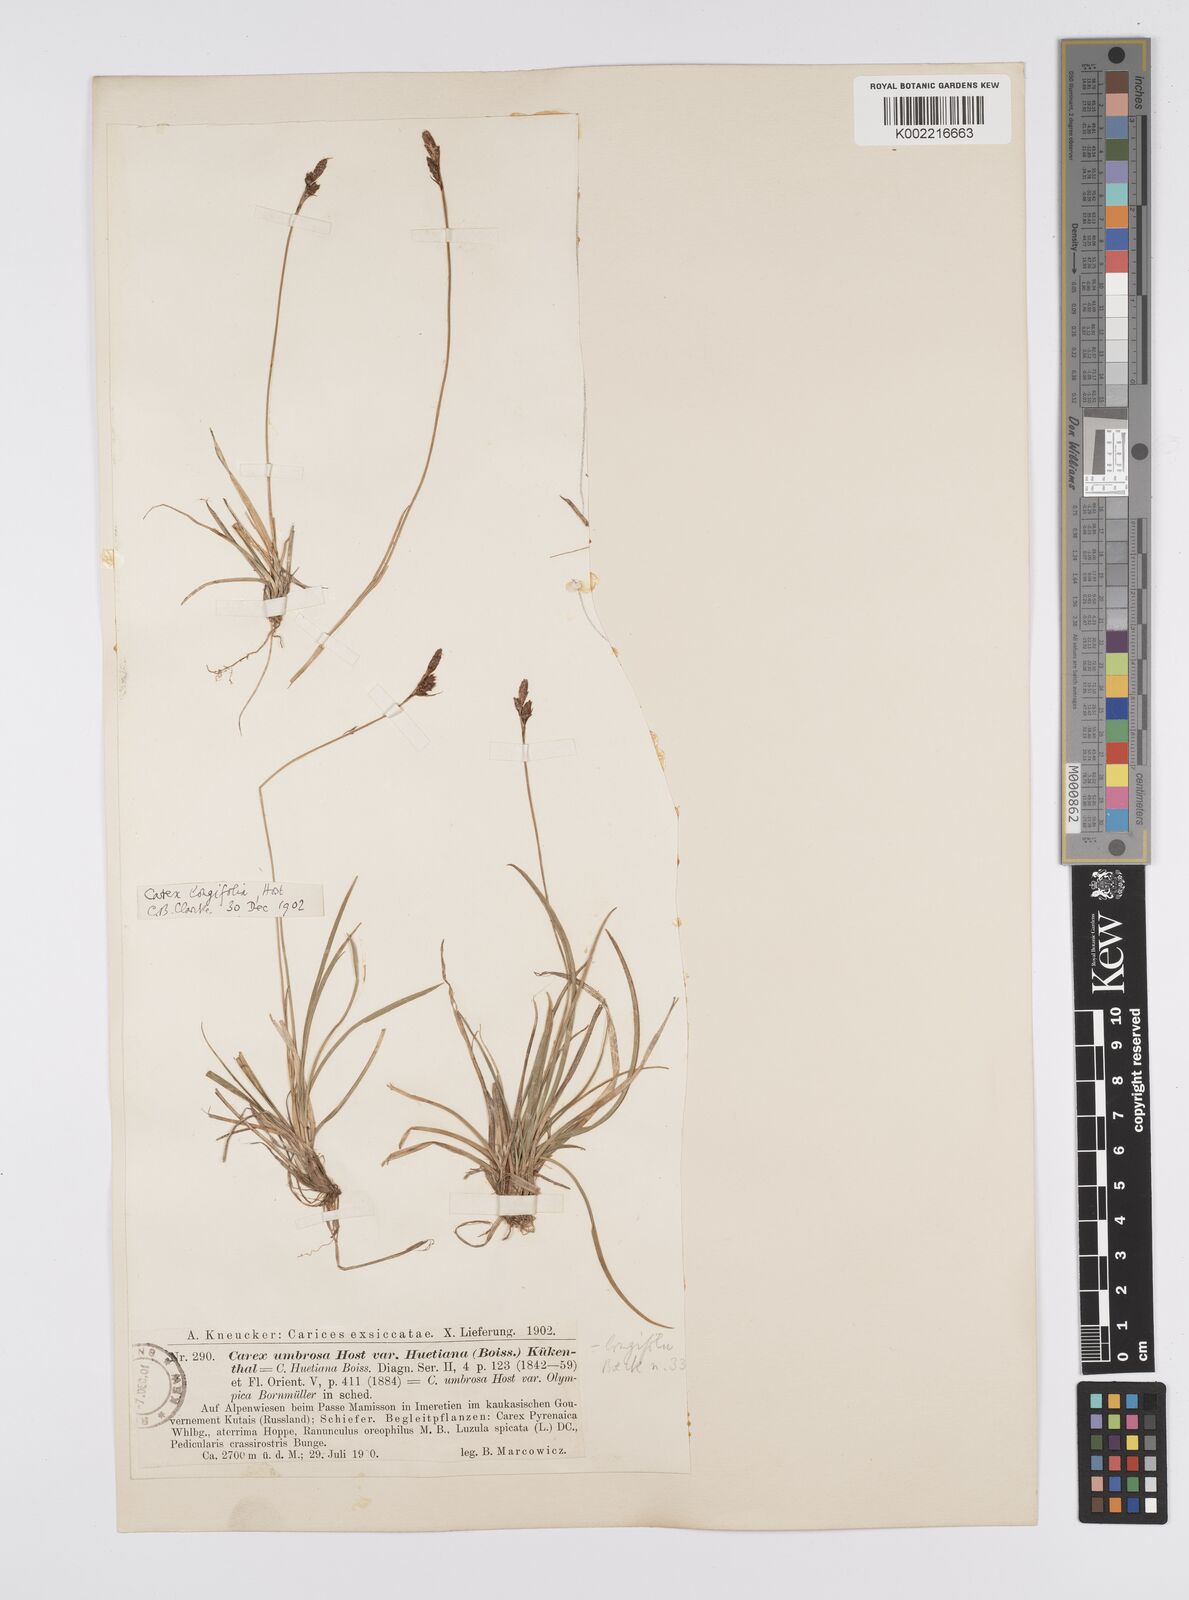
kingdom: Plantae
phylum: Tracheophyta
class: Liliopsida
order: Poales
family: Cyperaceae
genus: Carex
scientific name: Carex umbrosa
